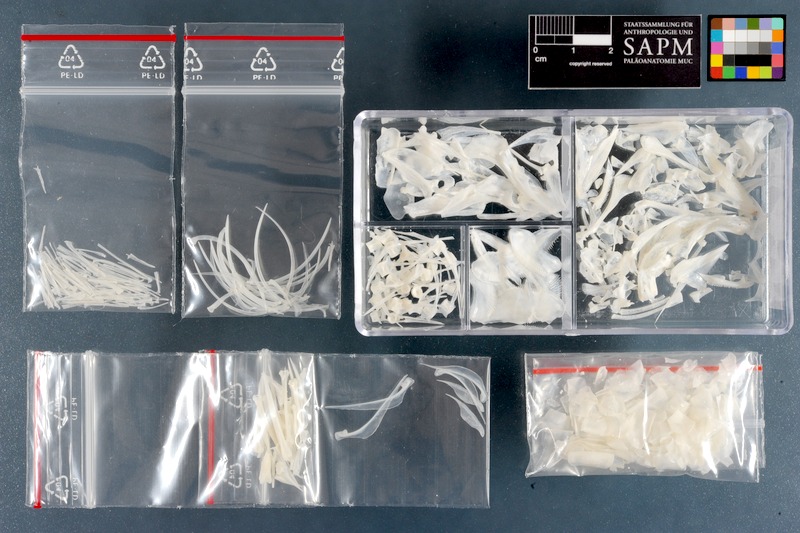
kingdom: Animalia
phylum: Chordata
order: Beryciformes
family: Holocentridae
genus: Myripristis
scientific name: Myripristis murdjan
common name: Big-eye soldierfish
